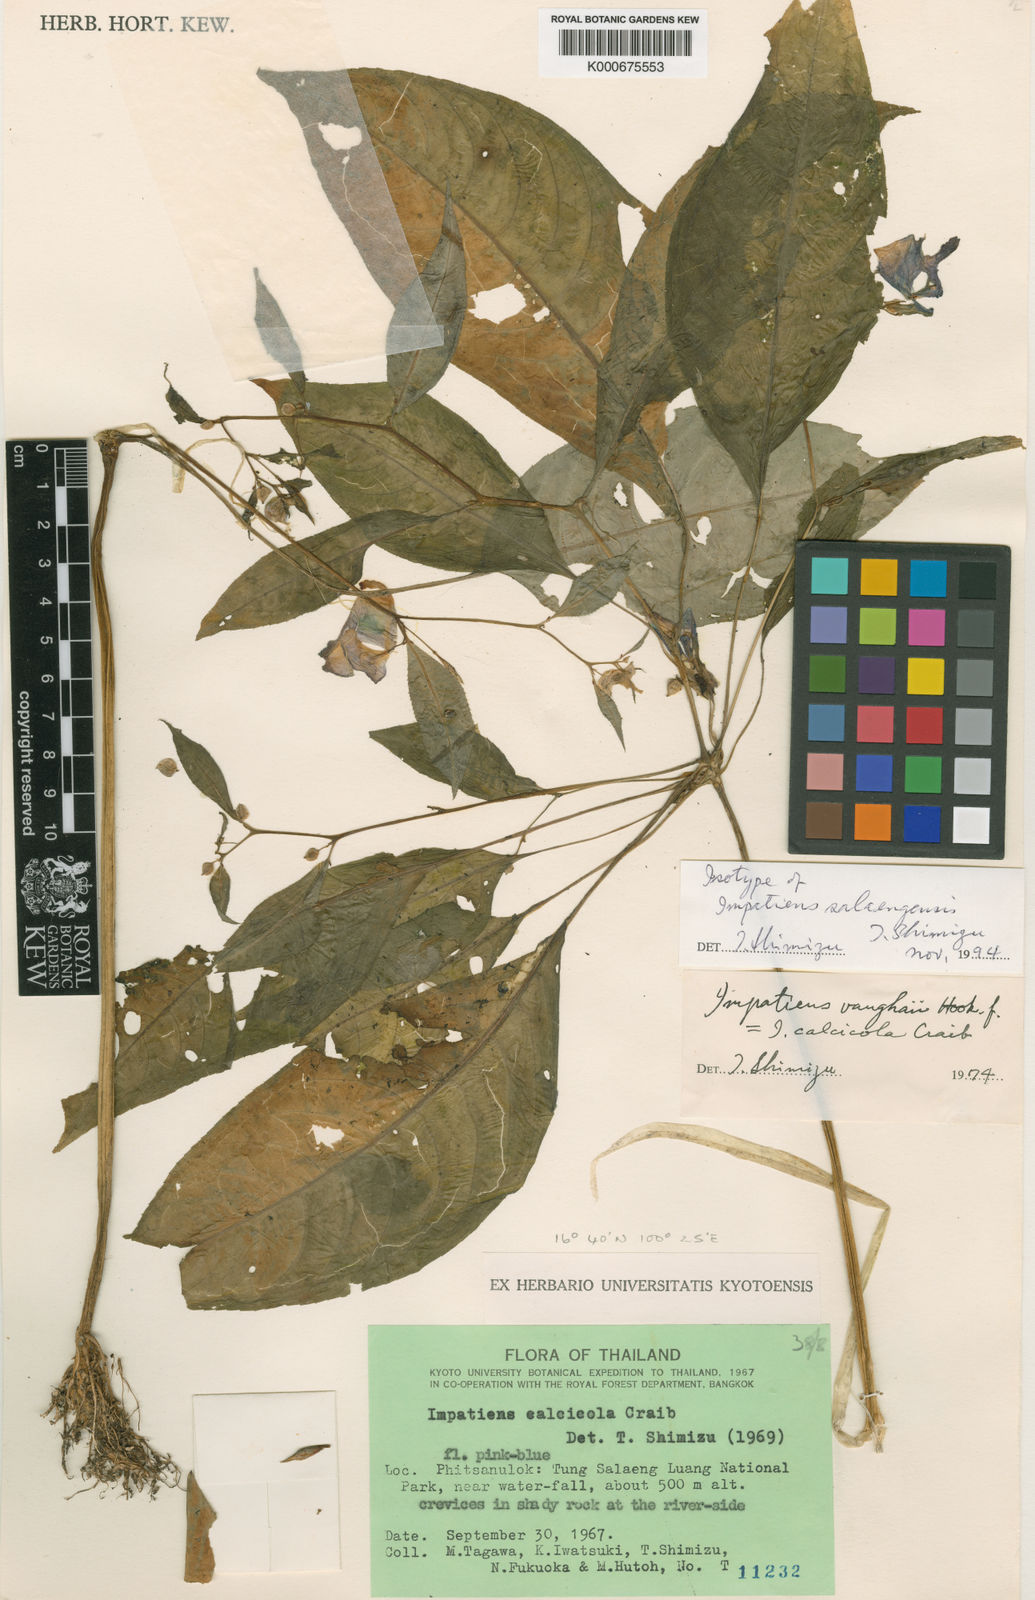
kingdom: Plantae
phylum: Tracheophyta
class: Magnoliopsida
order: Ericales
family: Balsaminaceae
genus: Impatiens
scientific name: Impatiens vaughanii
